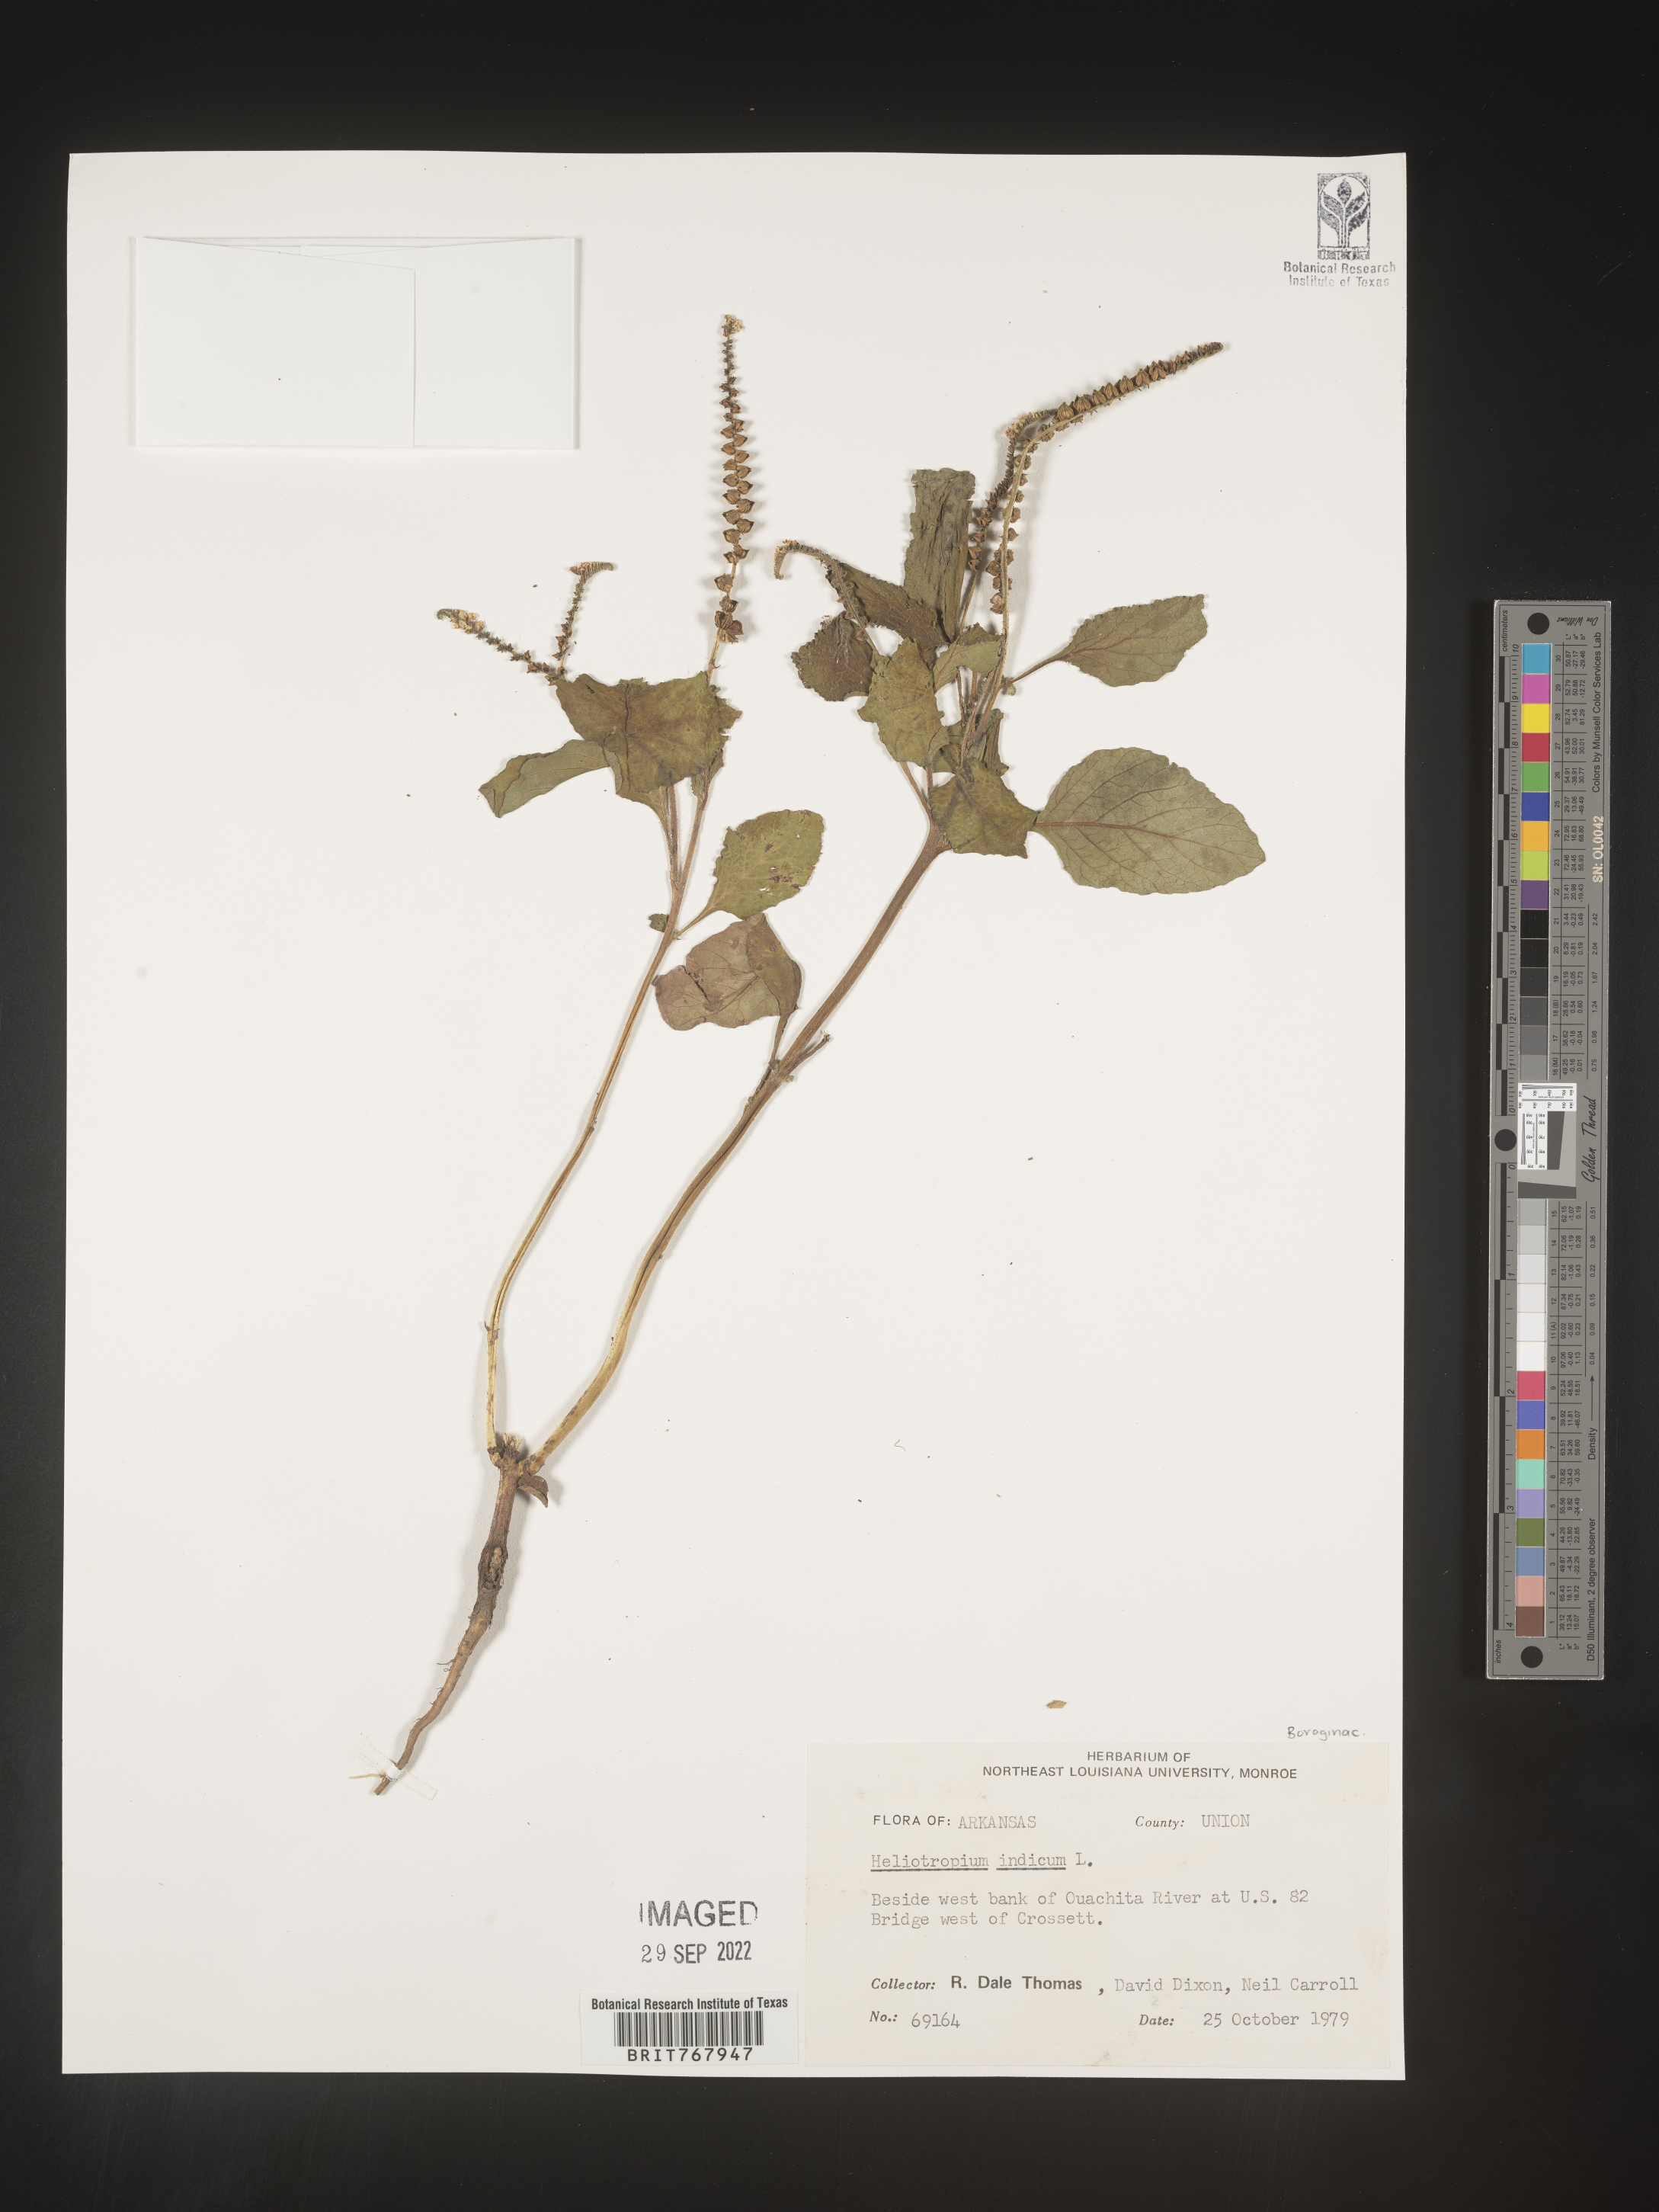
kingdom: Plantae
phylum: Tracheophyta
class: Magnoliopsida
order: Boraginales
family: Heliotropiaceae
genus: Heliotropium
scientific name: Heliotropium indicum
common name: Indian heliotrope
